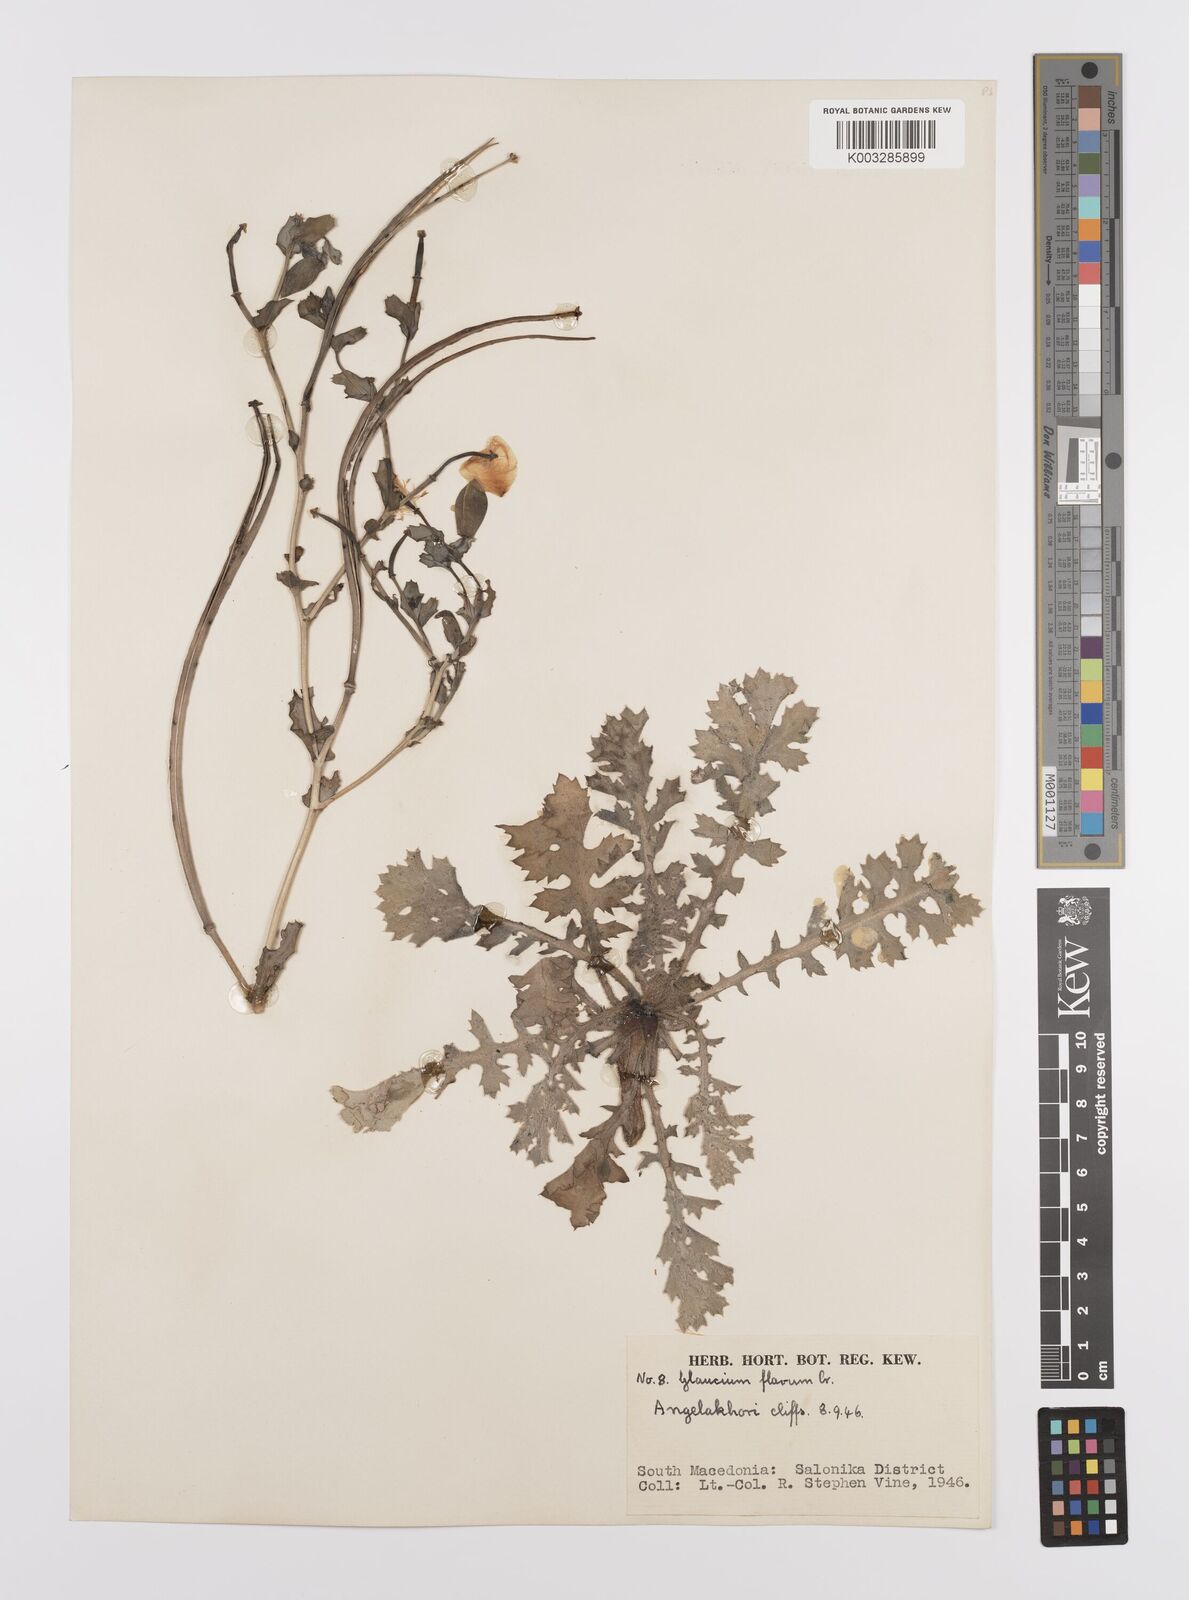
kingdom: Plantae
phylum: Tracheophyta
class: Magnoliopsida
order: Ranunculales
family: Papaveraceae
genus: Glaucium
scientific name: Glaucium flavum
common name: Yellow horned-poppy
